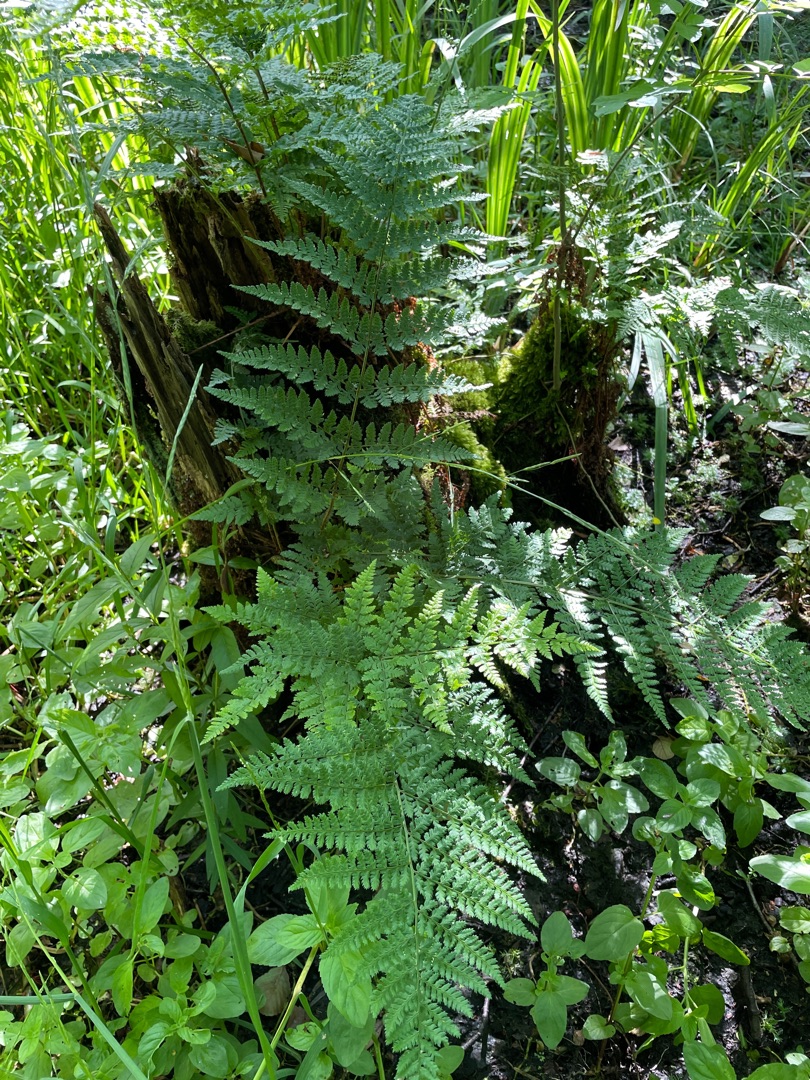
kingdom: Plantae
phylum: Tracheophyta
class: Polypodiopsida
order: Polypodiales
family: Dryopteridaceae
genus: Dryopteris
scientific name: Dryopteris dilatata
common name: Bredbladet mangeløv
